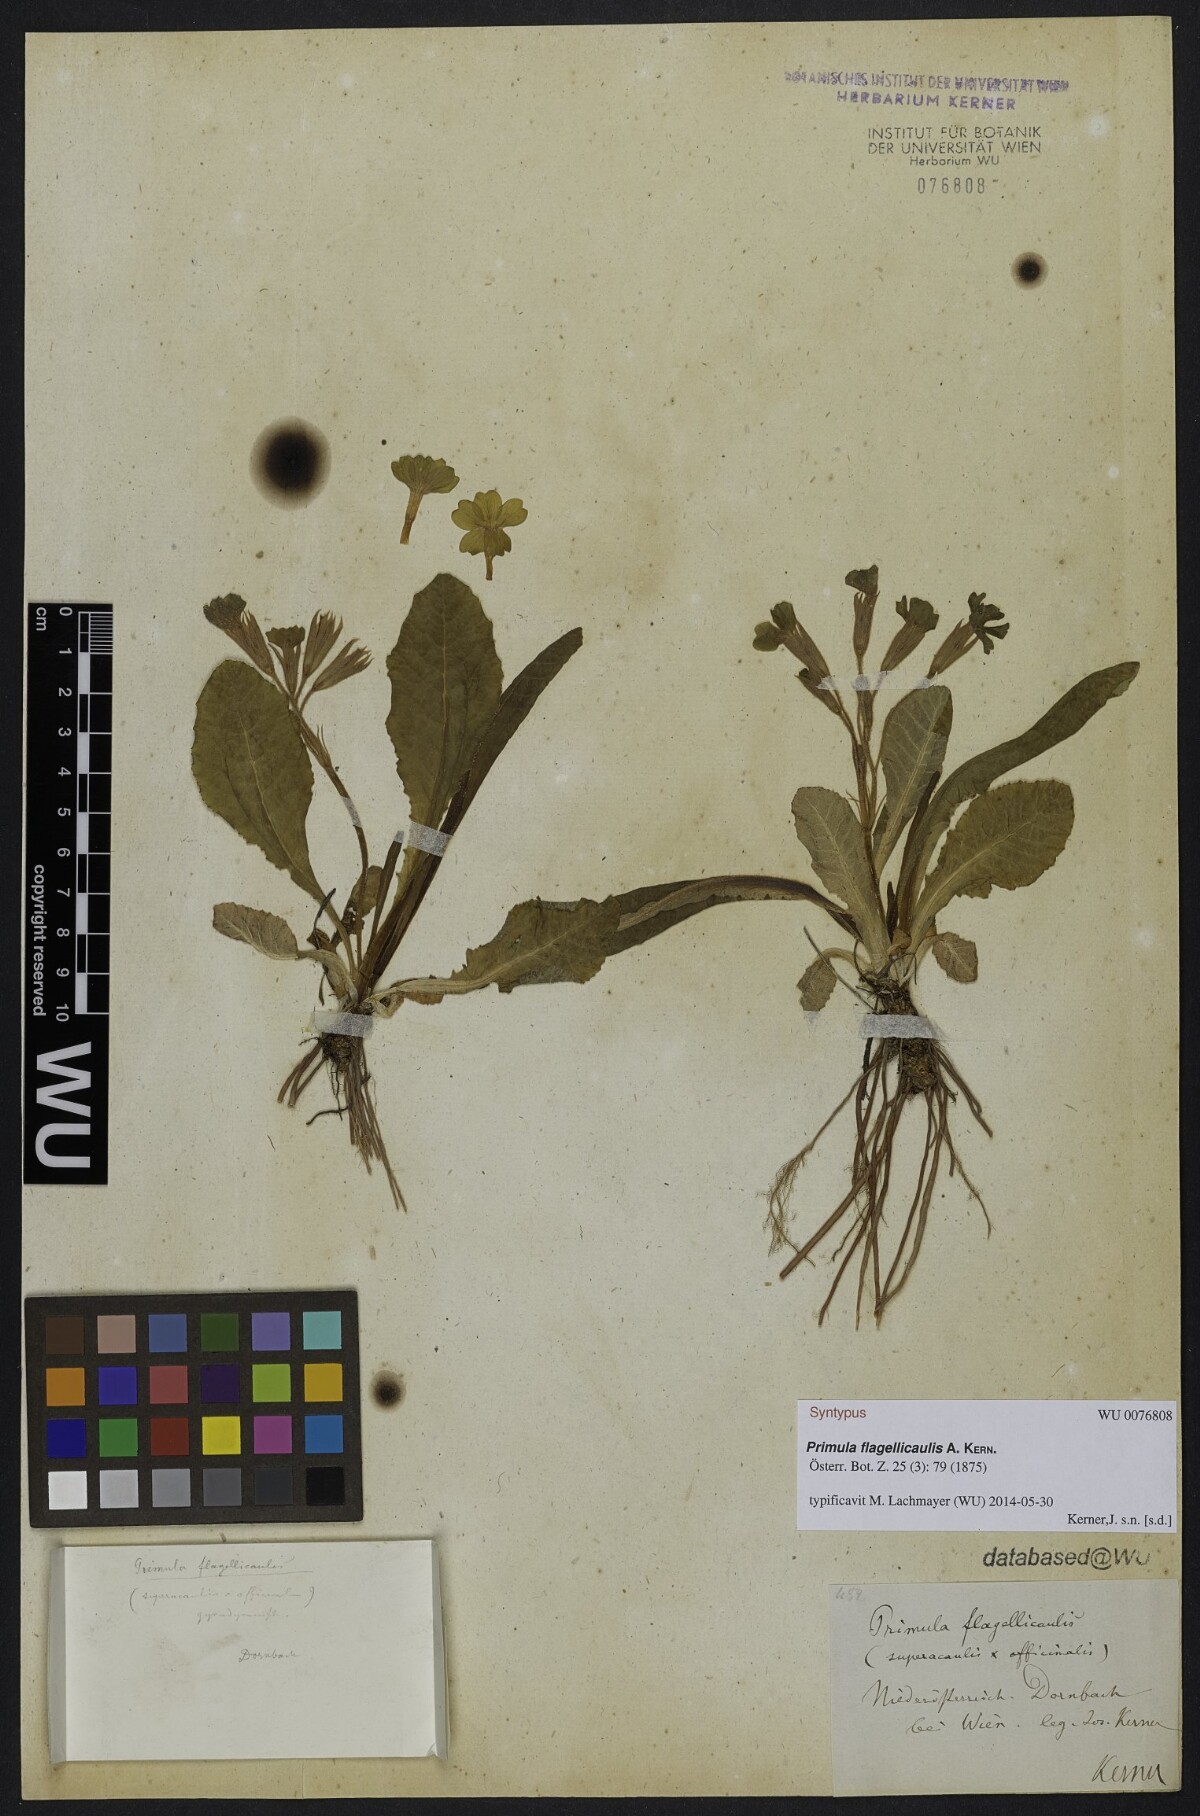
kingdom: Plantae
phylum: Tracheophyta
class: Magnoliopsida
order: Ericales
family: Primulaceae
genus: Primula
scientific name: Primula polyantha
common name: False oxlip
